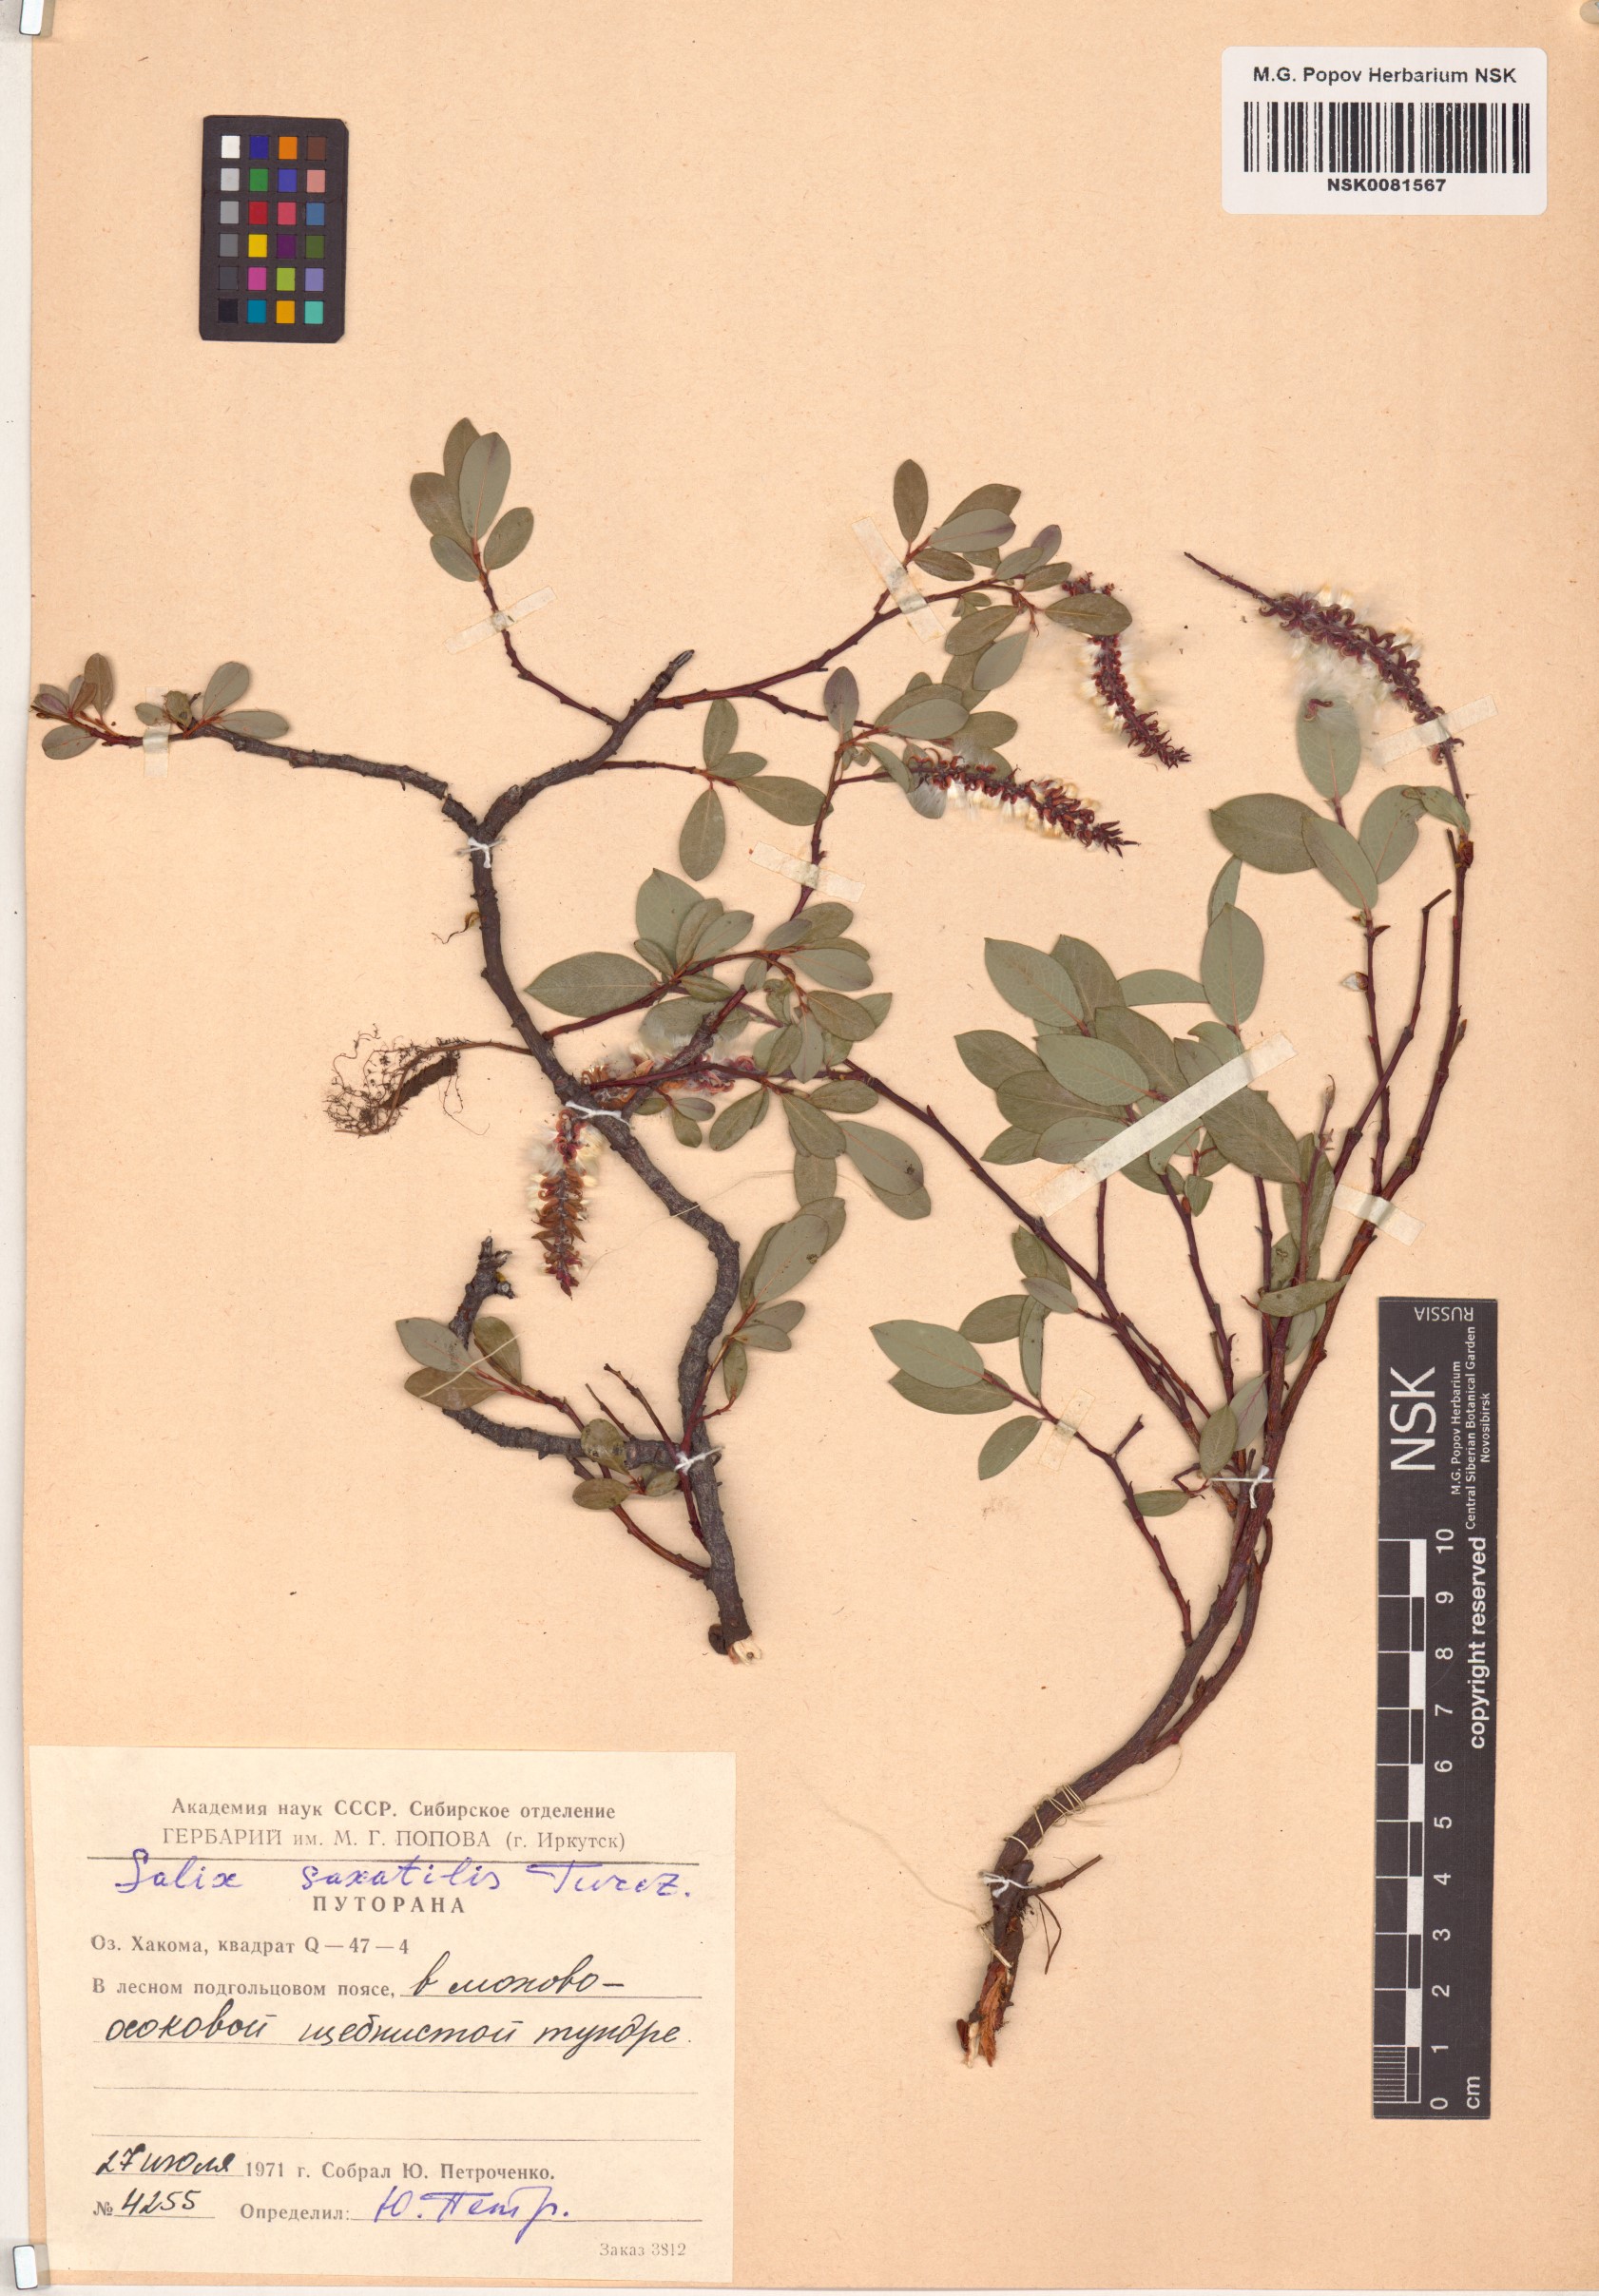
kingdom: Plantae
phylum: Tracheophyta
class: Magnoliopsida
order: Malpighiales
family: Salicaceae
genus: Salix
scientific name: Salix saxatilis
